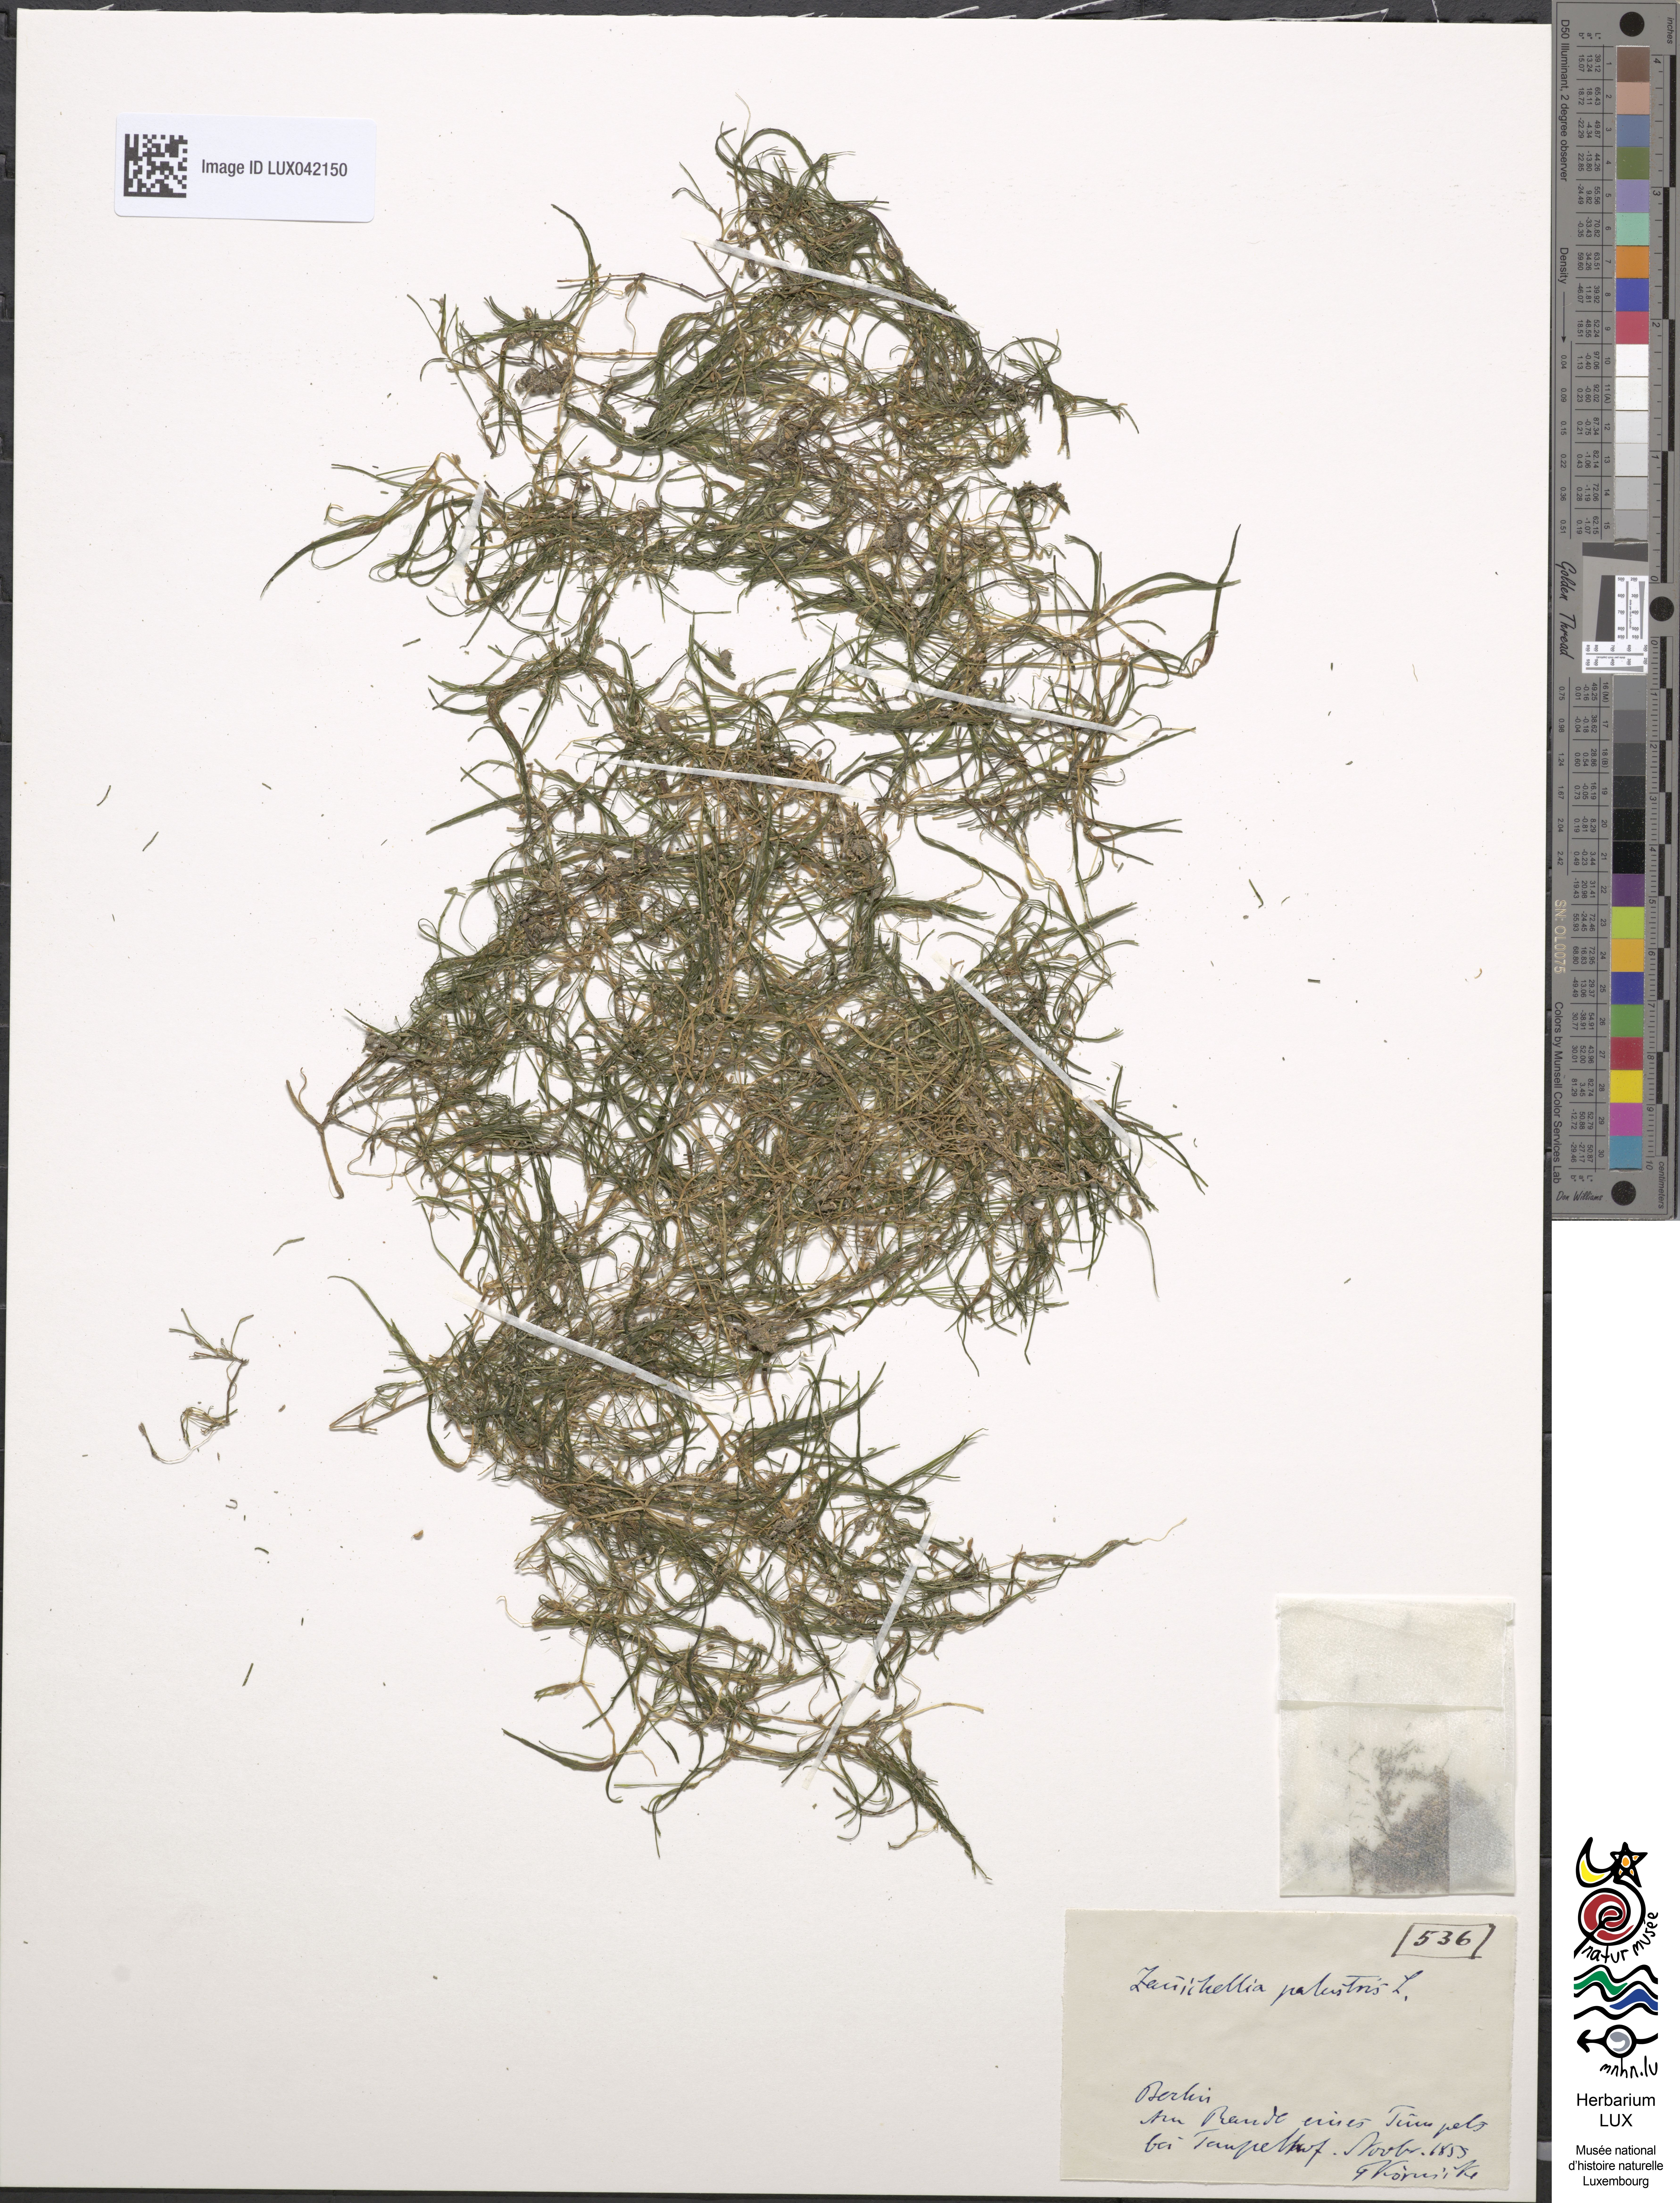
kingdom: Plantae
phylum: Tracheophyta
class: Liliopsida
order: Alismatales
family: Potamogetonaceae
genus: Zannichellia
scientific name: Zannichellia palustris
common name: Horned pondweed
